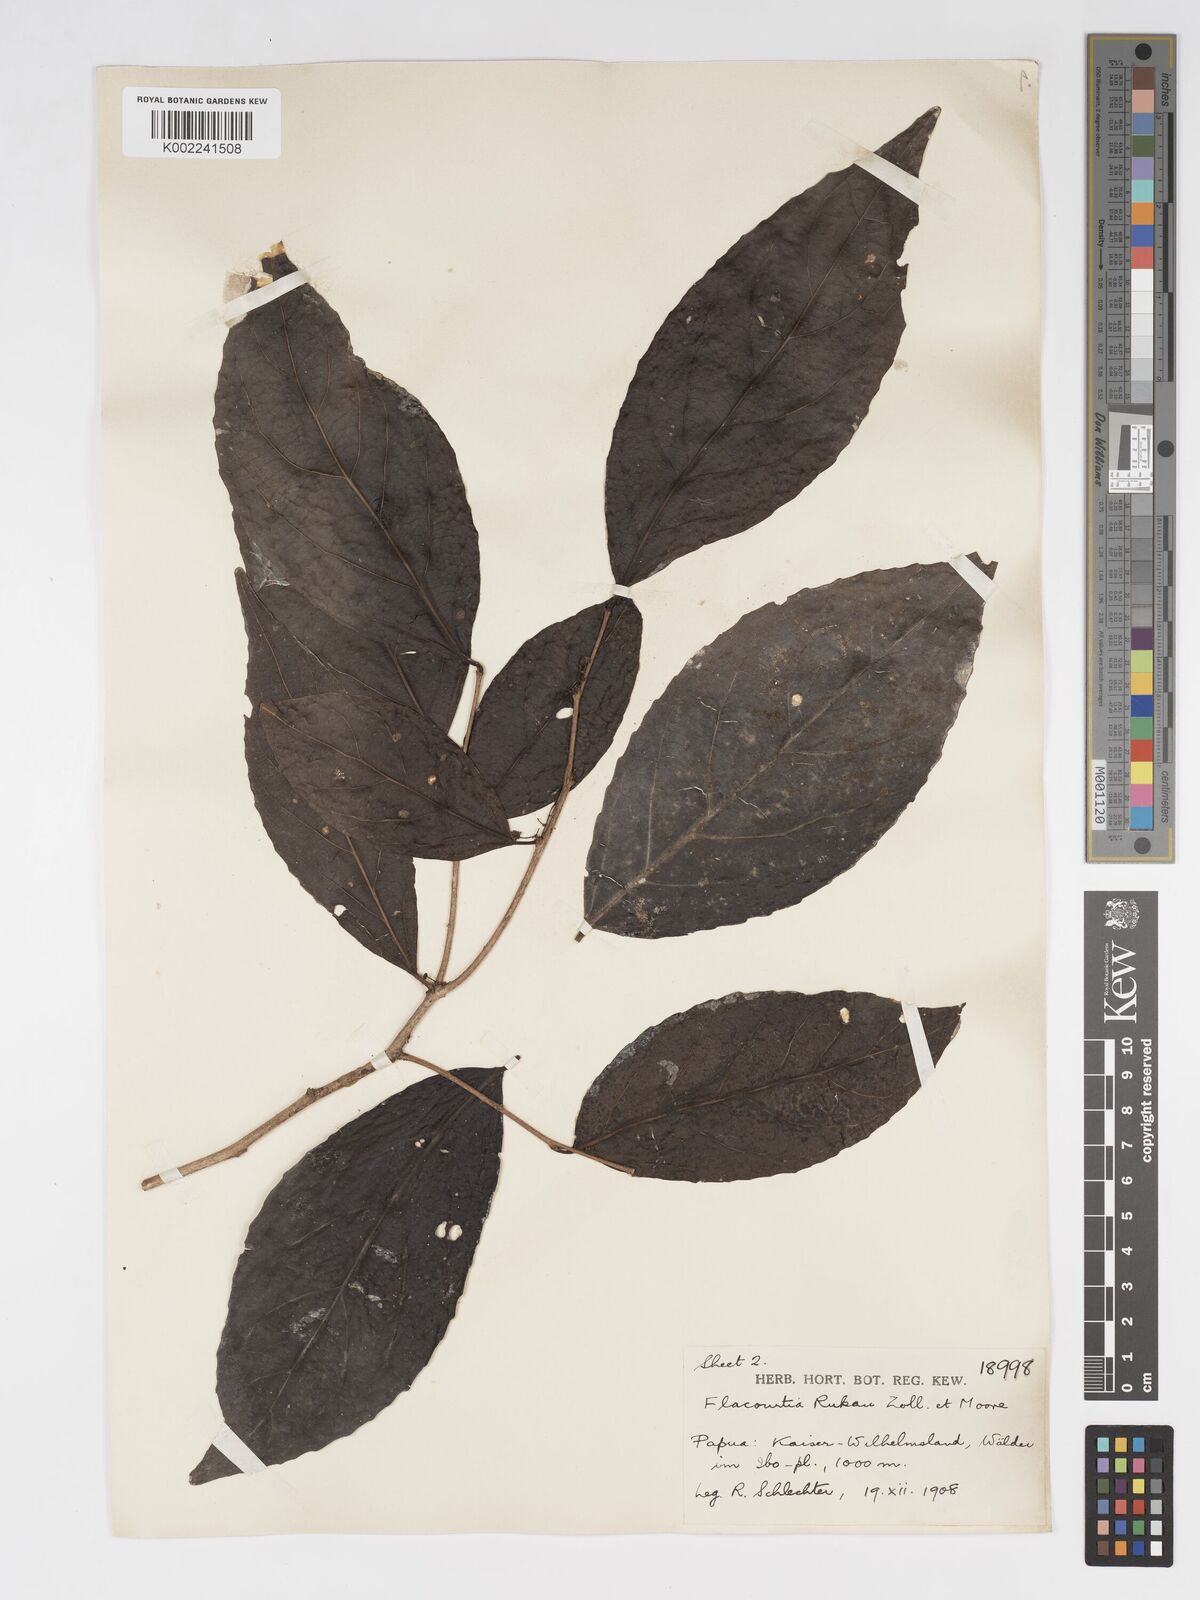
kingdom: Plantae
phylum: Tracheophyta
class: Magnoliopsida
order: Malpighiales
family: Salicaceae
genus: Flacourtia
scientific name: Flacourtia rukam
